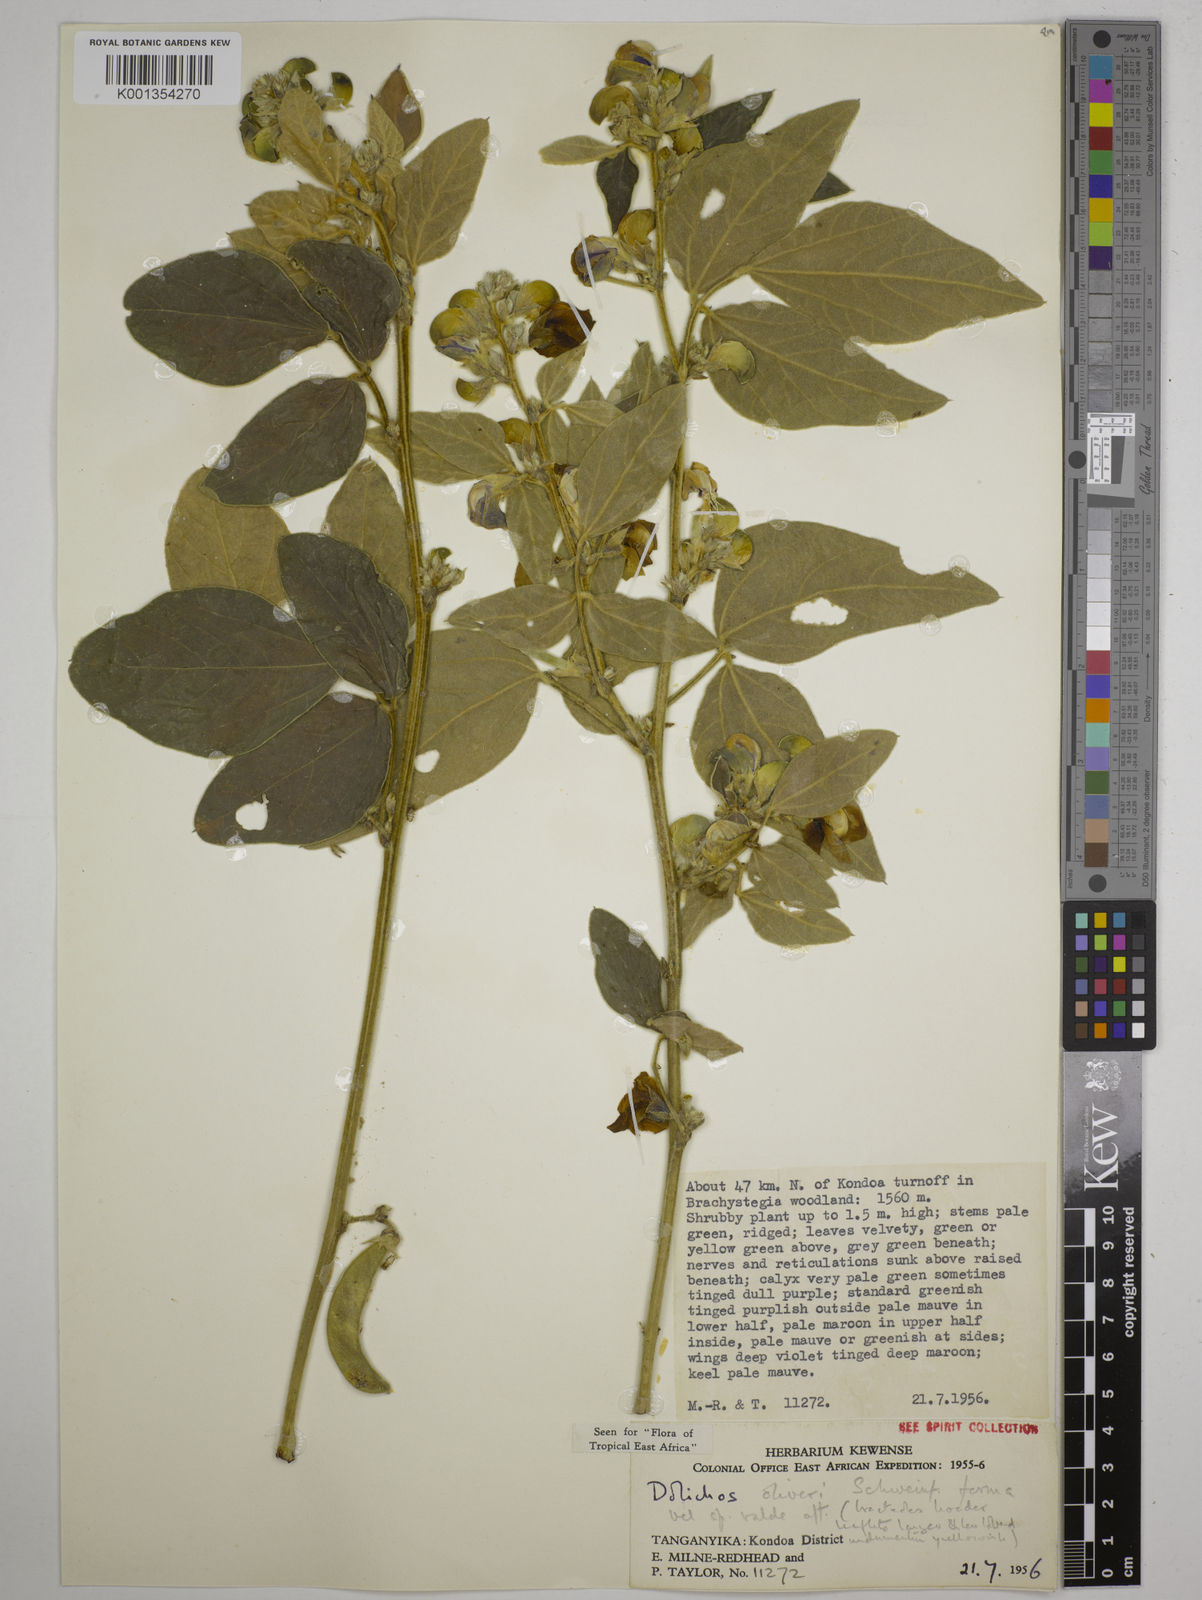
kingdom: Plantae
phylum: Tracheophyta
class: Magnoliopsida
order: Fabales
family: Fabaceae
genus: Dolichos
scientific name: Dolichos oliveri
